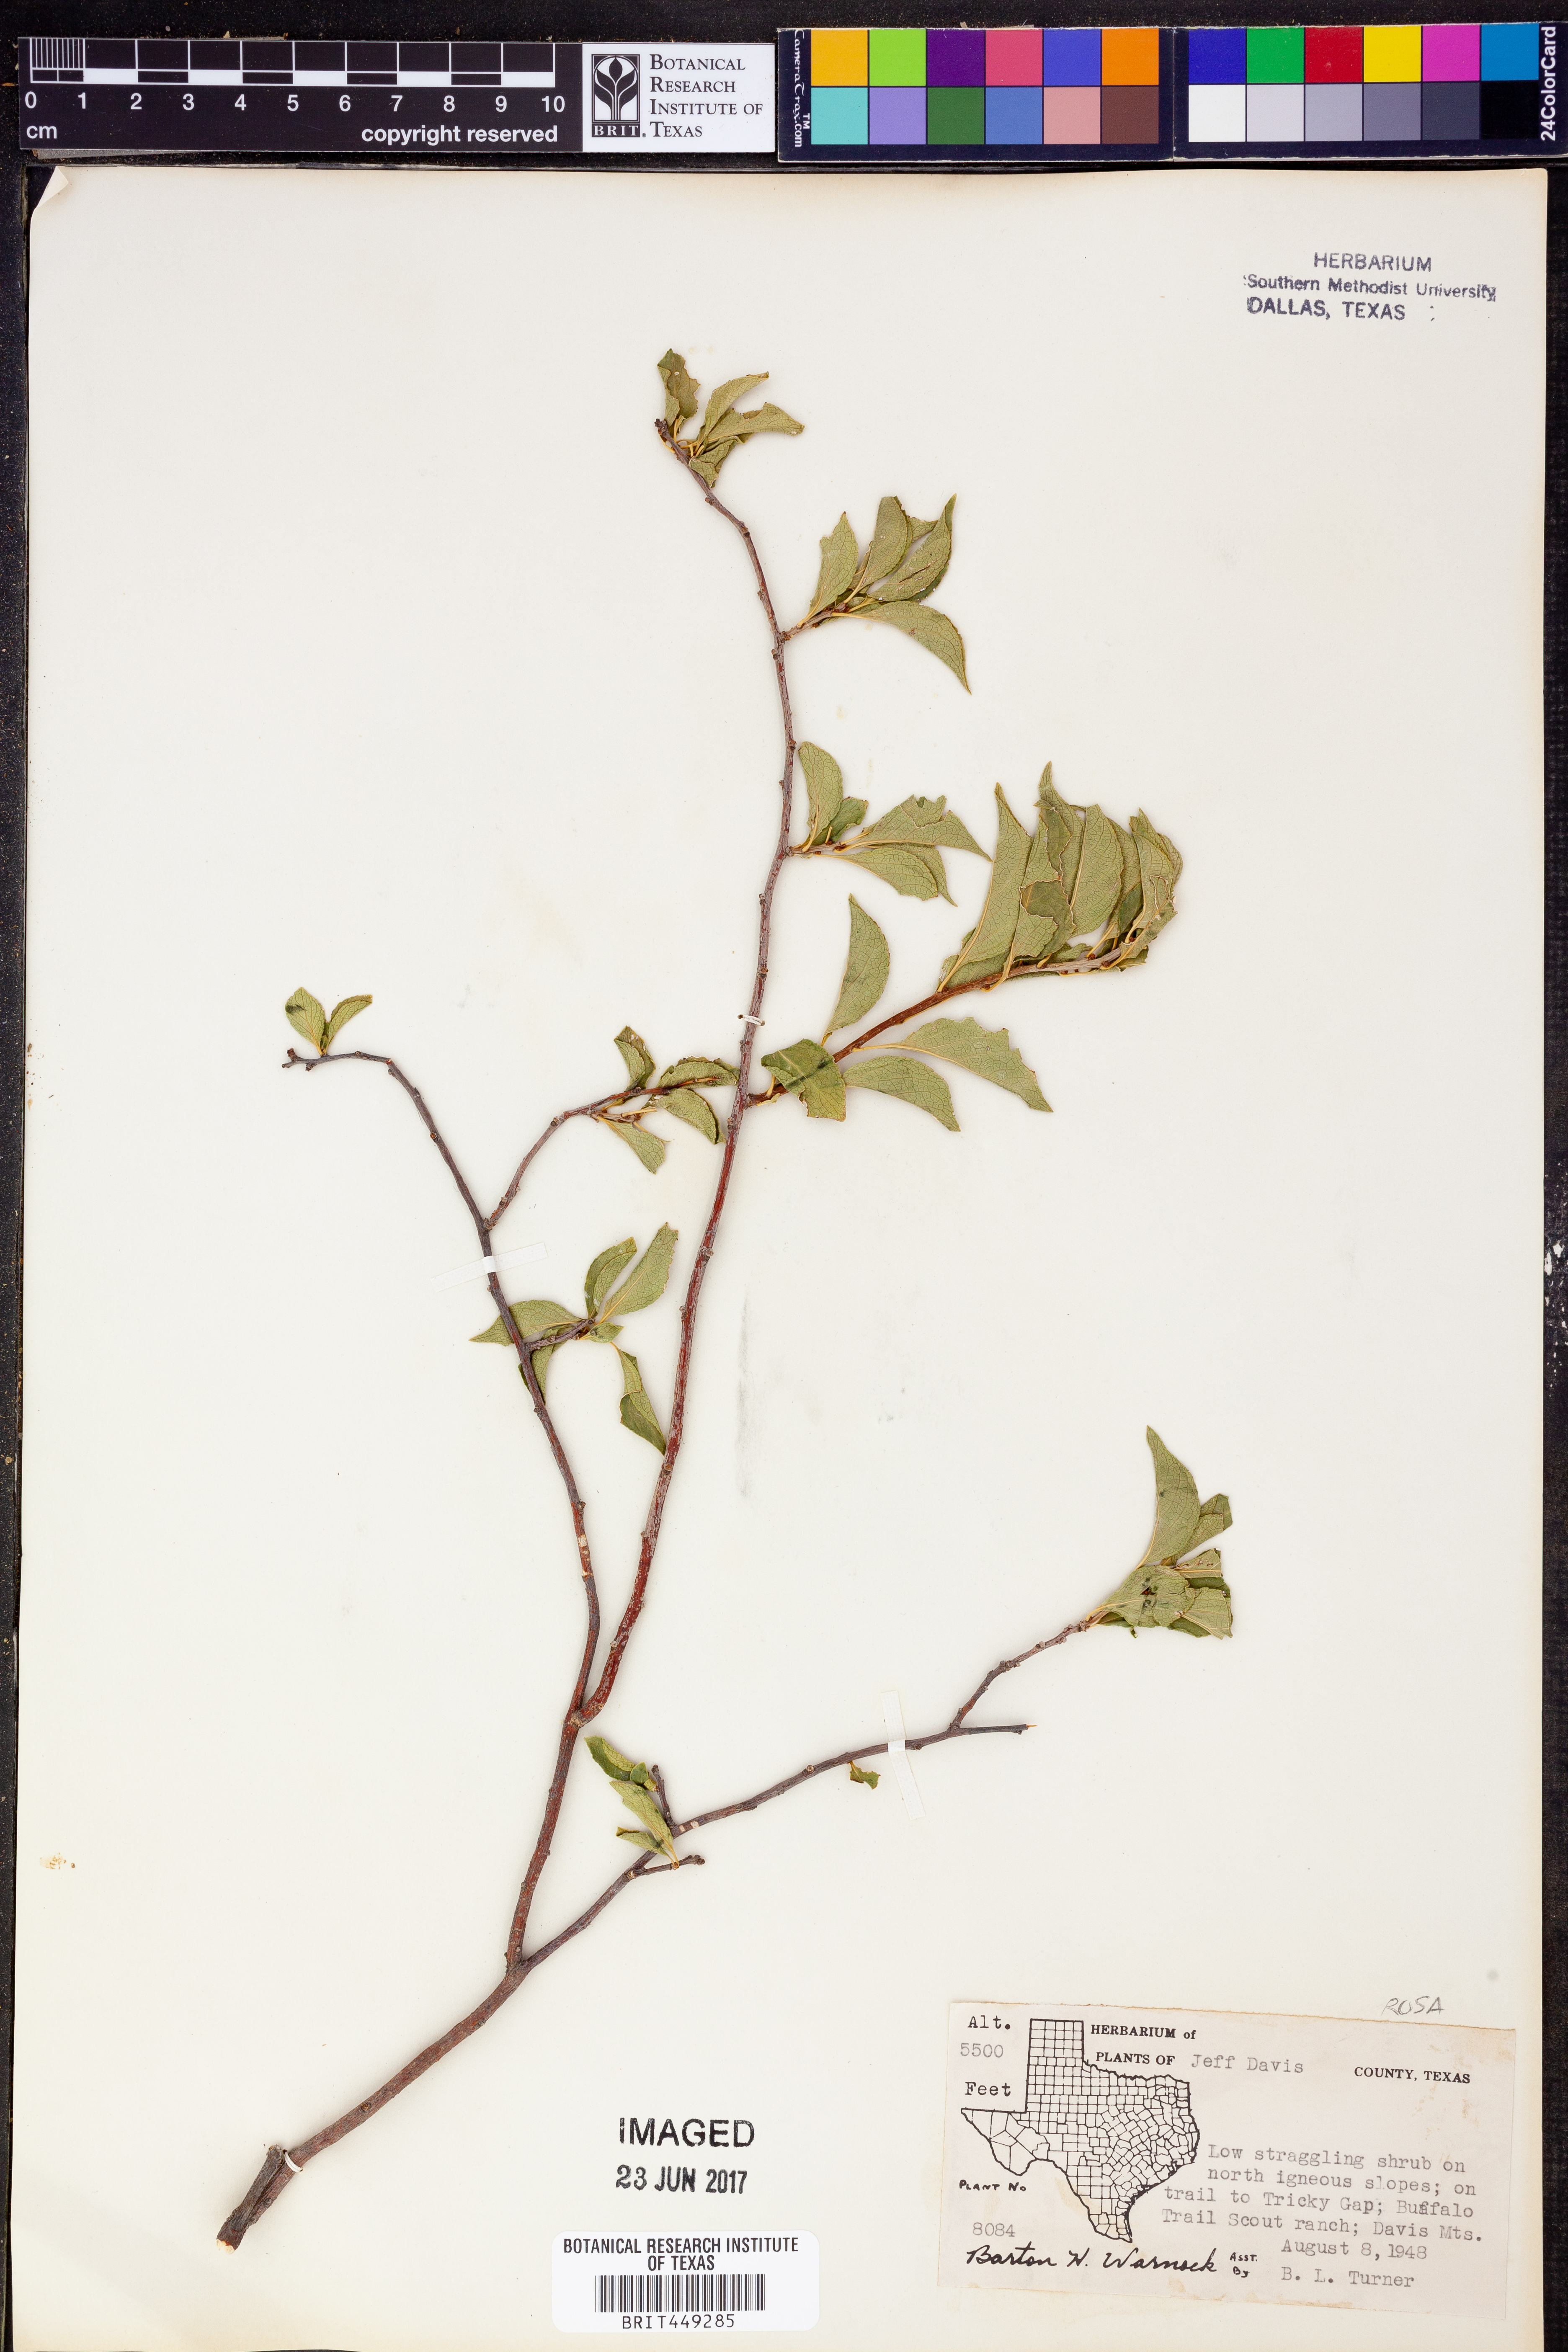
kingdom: Plantae
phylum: Tracheophyta
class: Magnoliopsida
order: Rosales
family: Rosaceae
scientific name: Rosaceae
